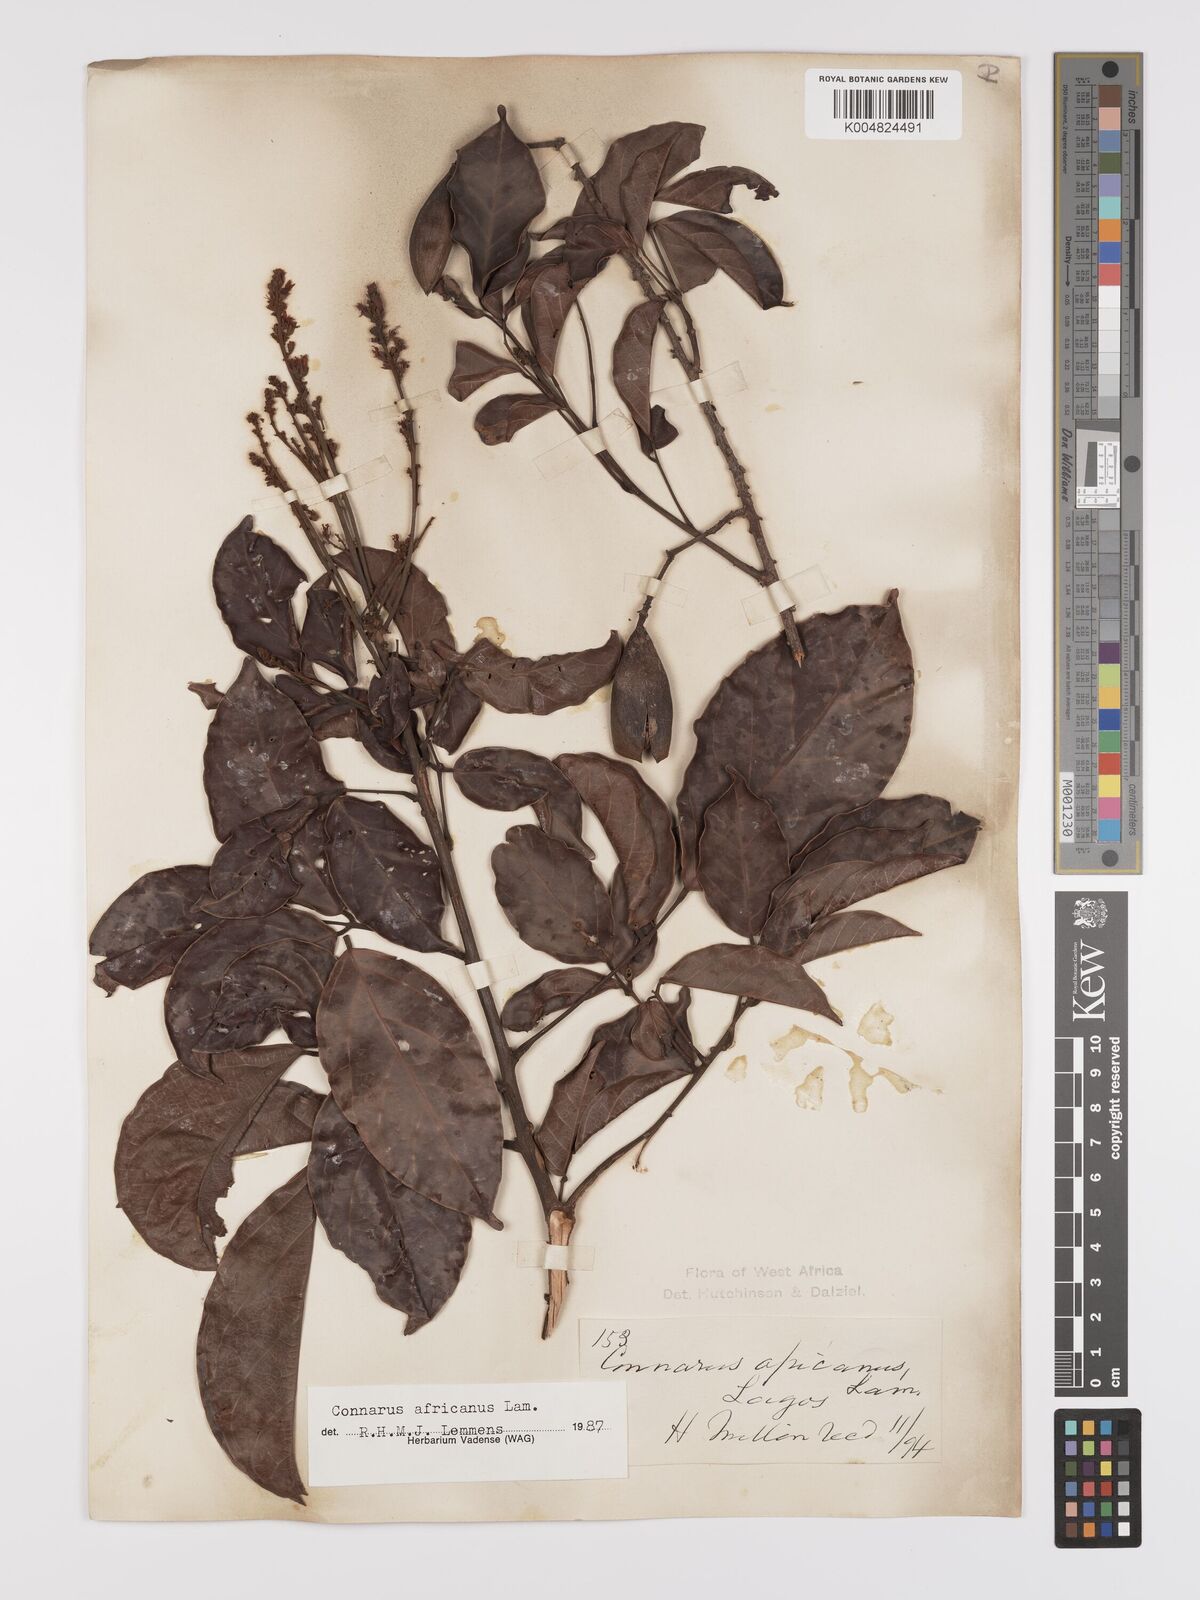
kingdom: Plantae
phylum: Tracheophyta
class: Magnoliopsida
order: Oxalidales
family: Connaraceae
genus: Connarus
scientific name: Connarus africanus
